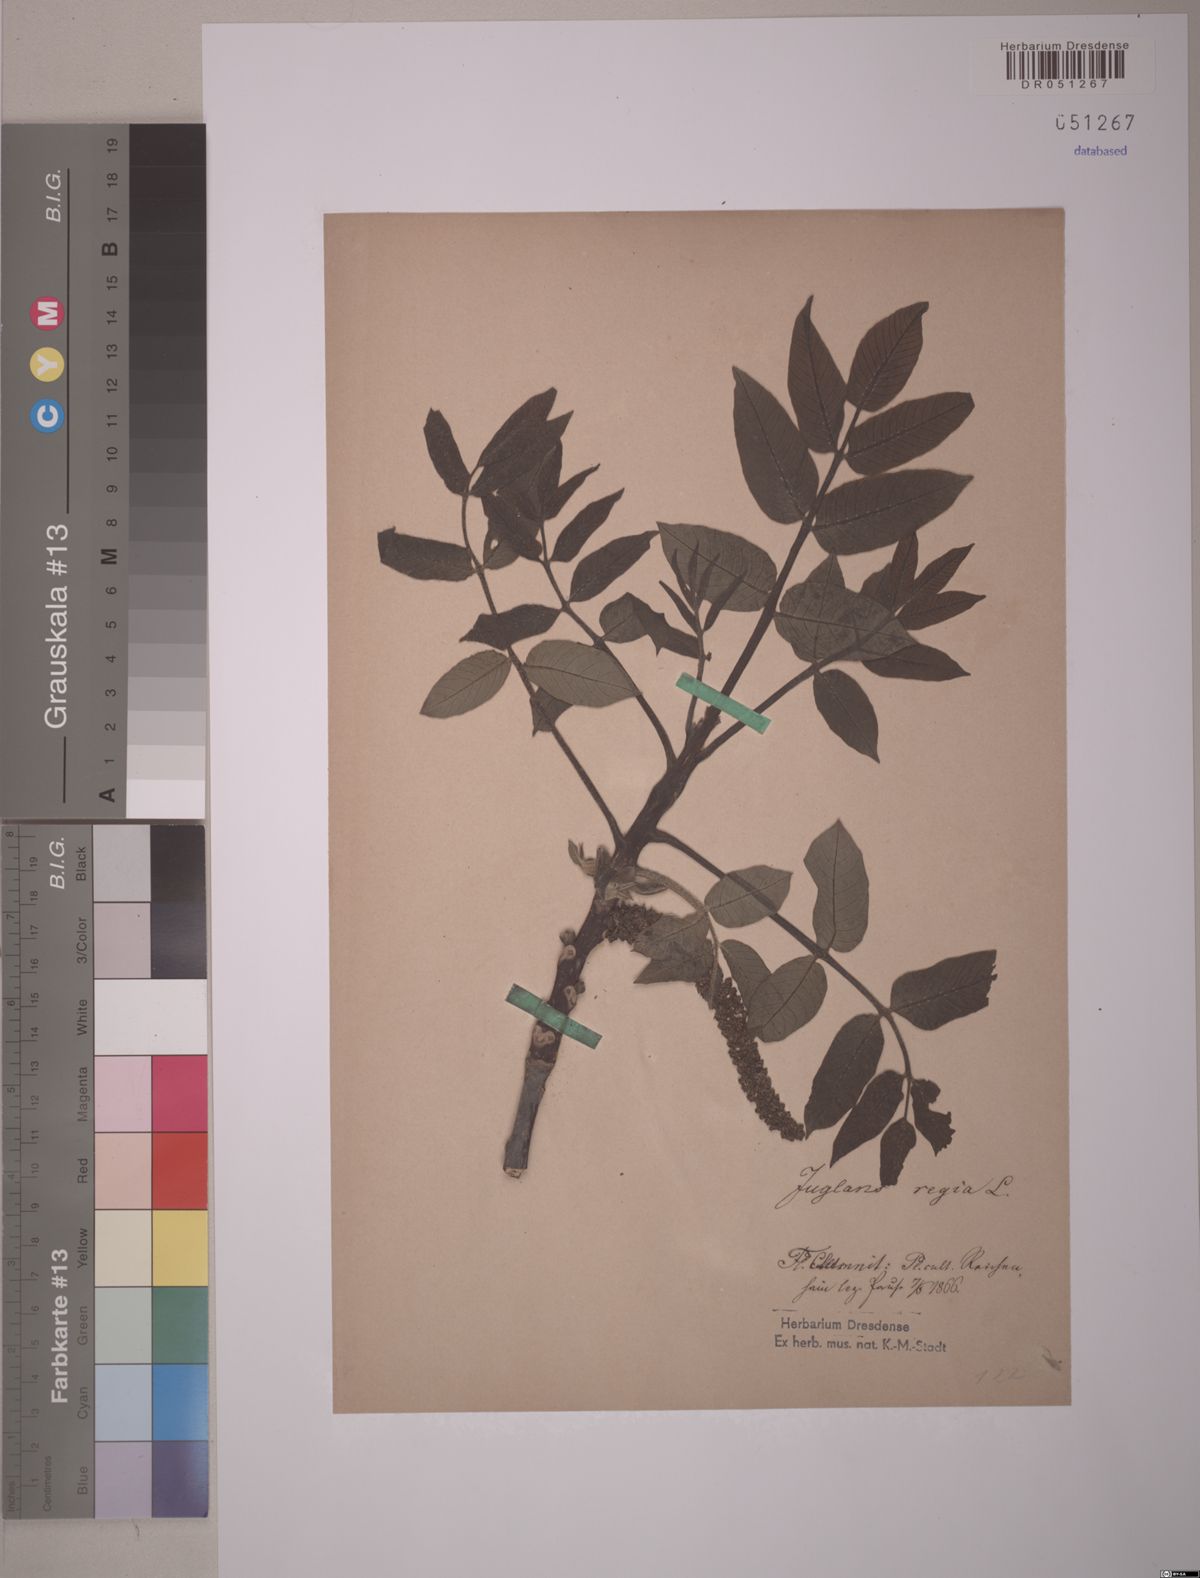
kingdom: Plantae
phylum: Tracheophyta
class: Magnoliopsida
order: Fagales
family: Juglandaceae
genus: Juglans
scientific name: Juglans regia
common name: Walnut
